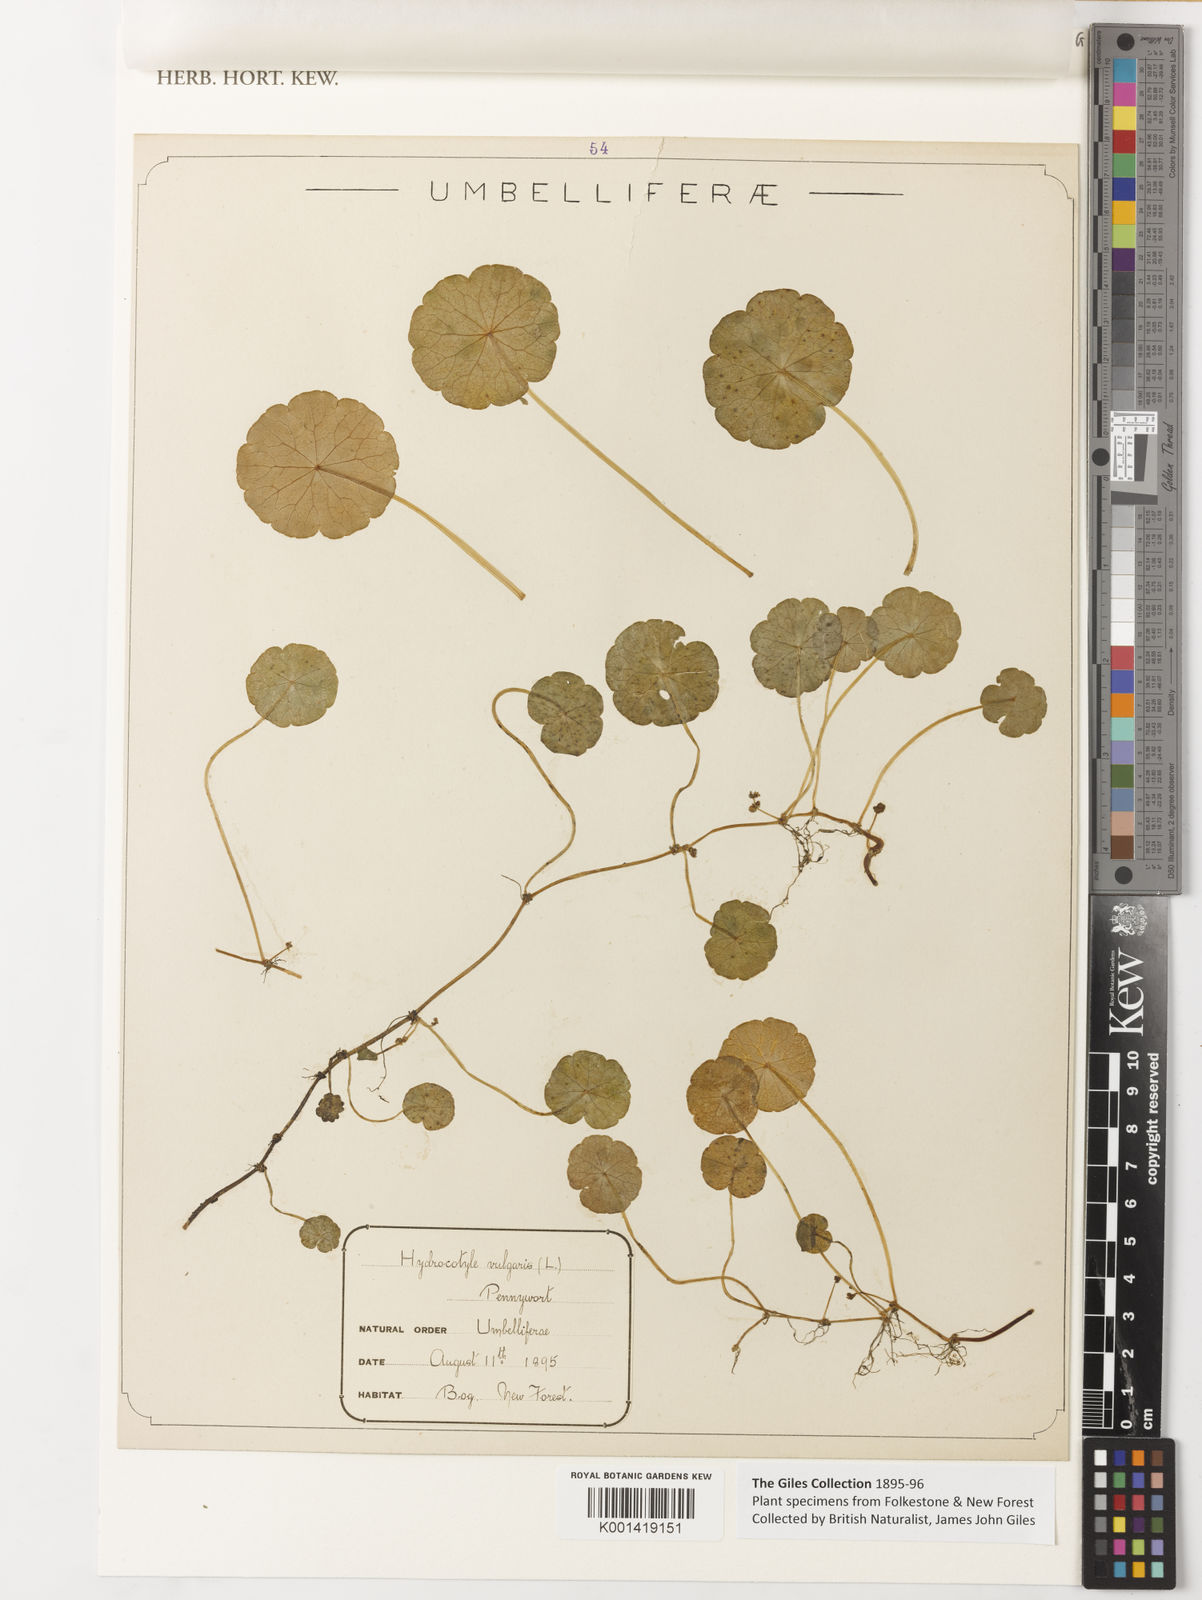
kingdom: Plantae
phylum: Tracheophyta
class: Magnoliopsida
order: Apiales
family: Araliaceae
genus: Hydrocotyle
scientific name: Hydrocotyle vulgaris
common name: Marsh pennywort
